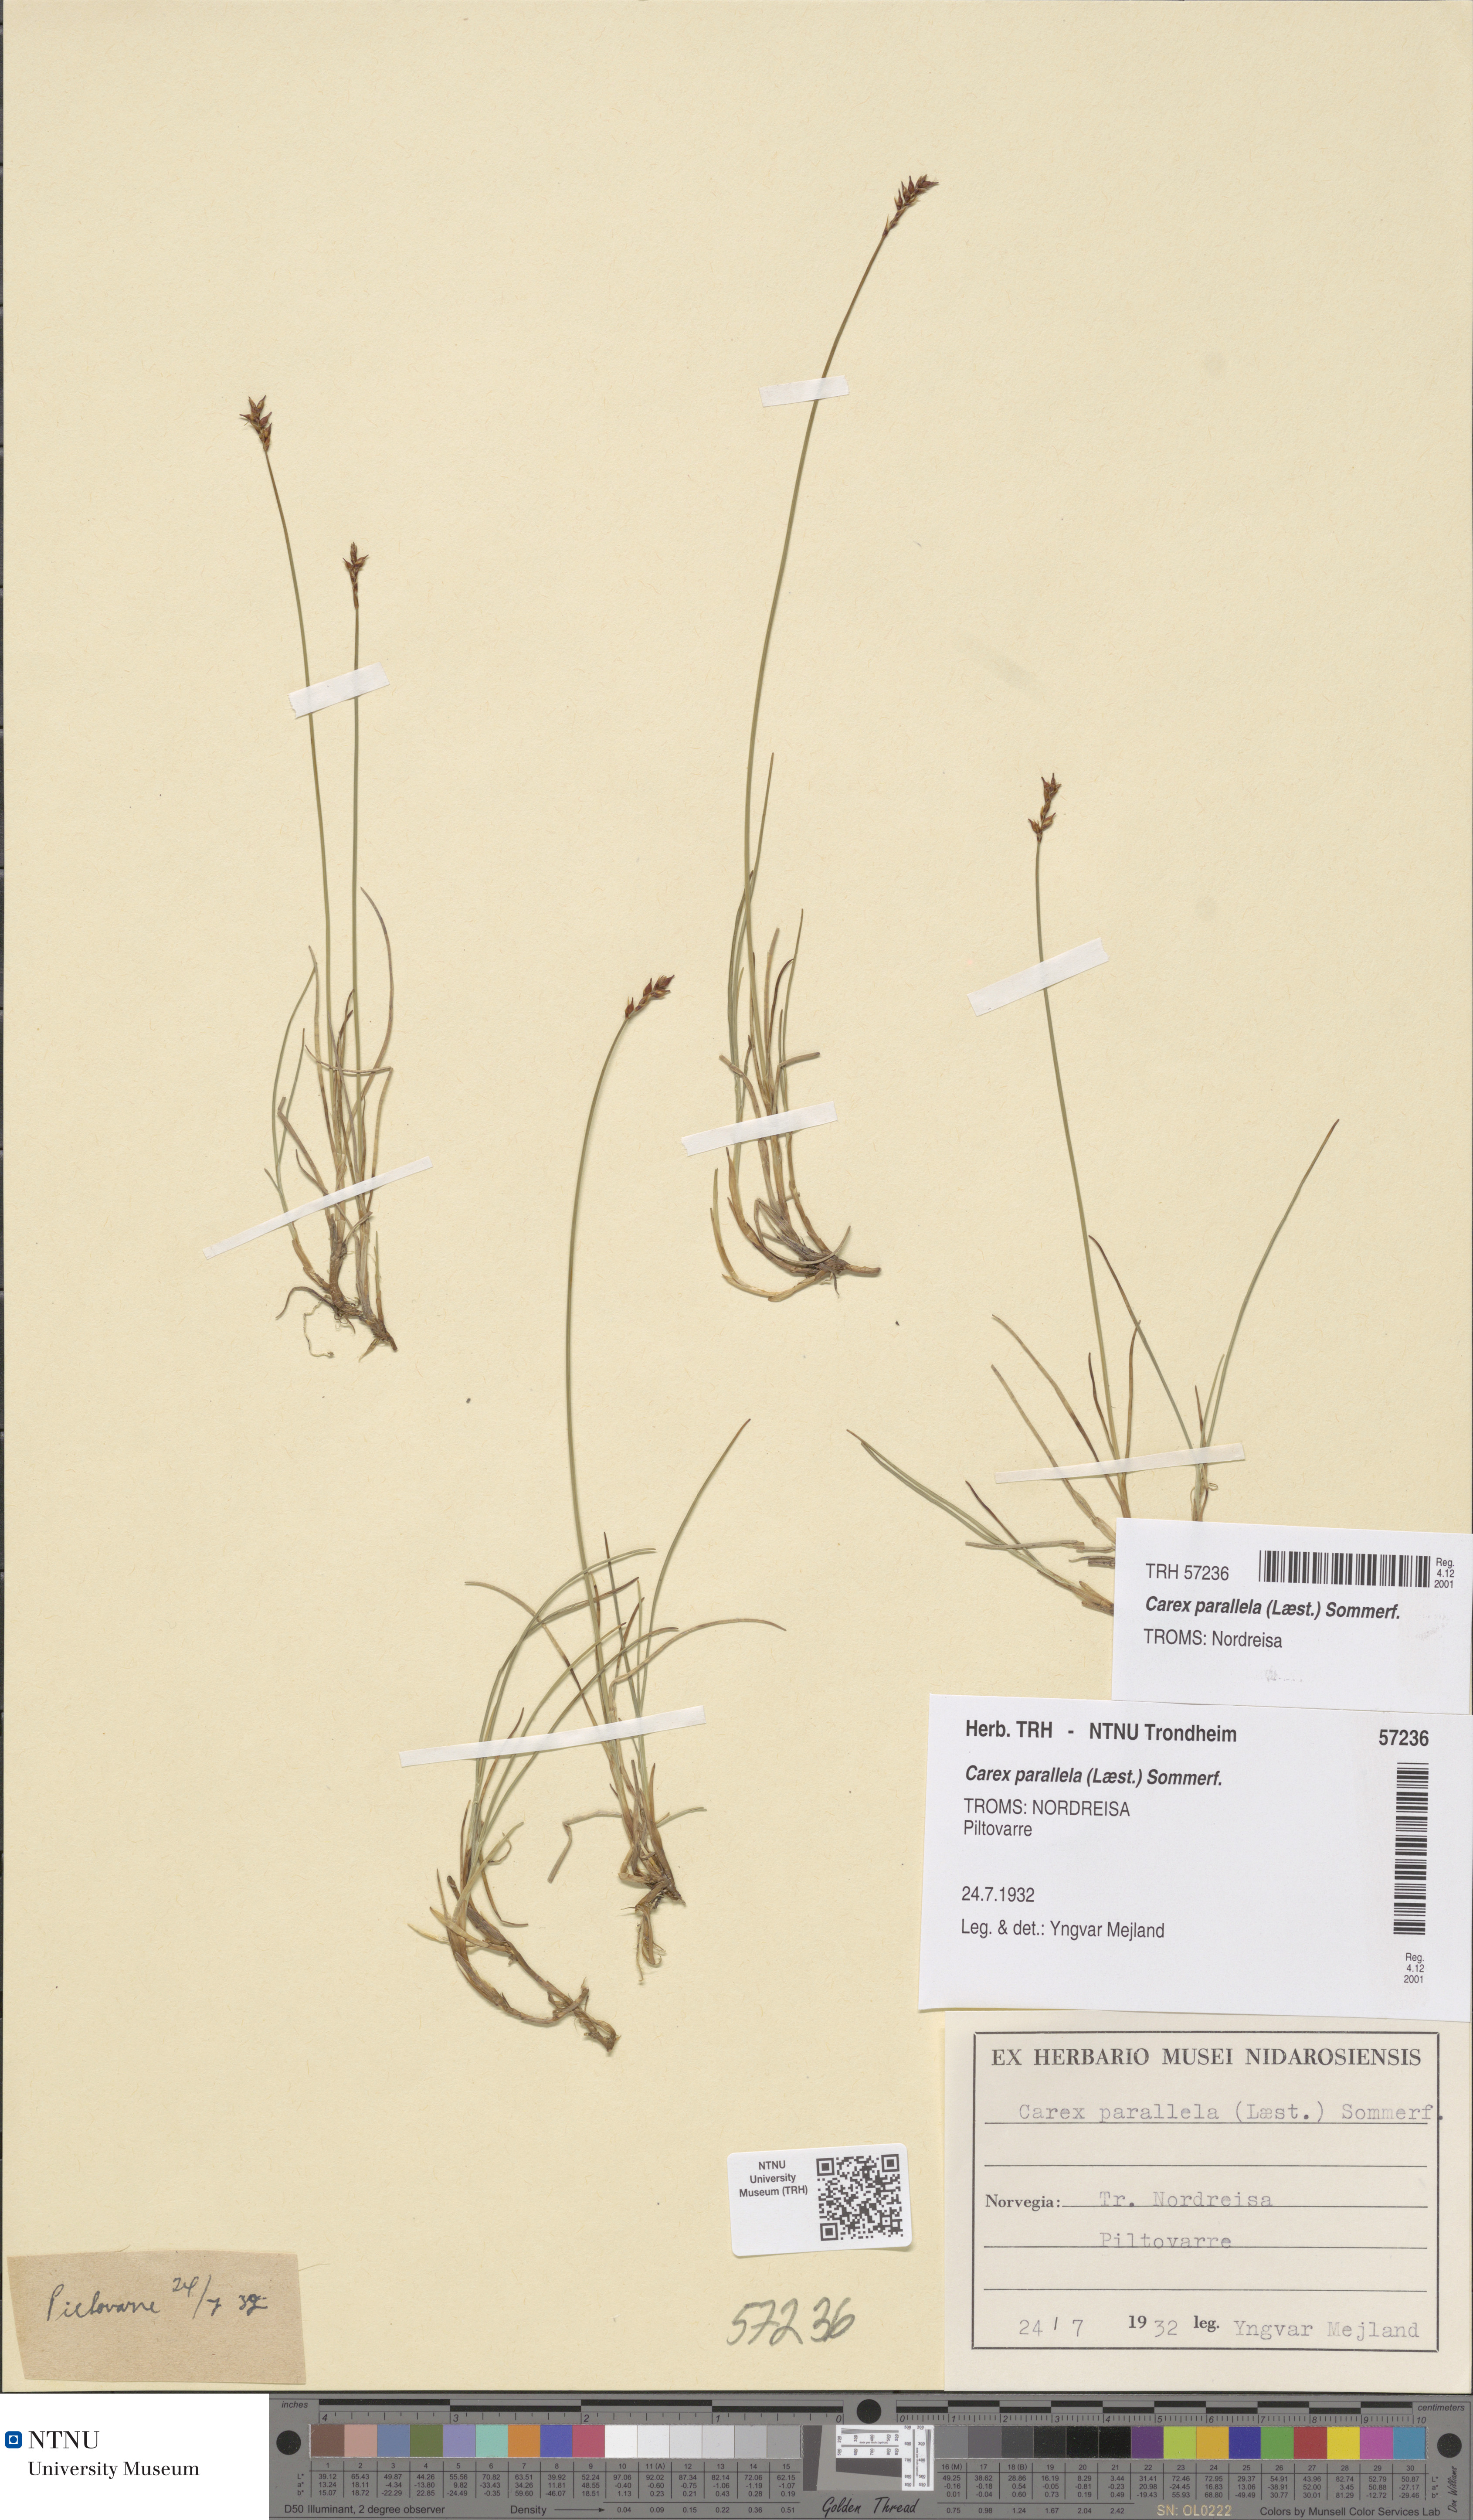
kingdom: Plantae
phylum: Tracheophyta
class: Liliopsida
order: Poales
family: Cyperaceae
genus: Carex
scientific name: Carex parallela
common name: Parallel sedge
